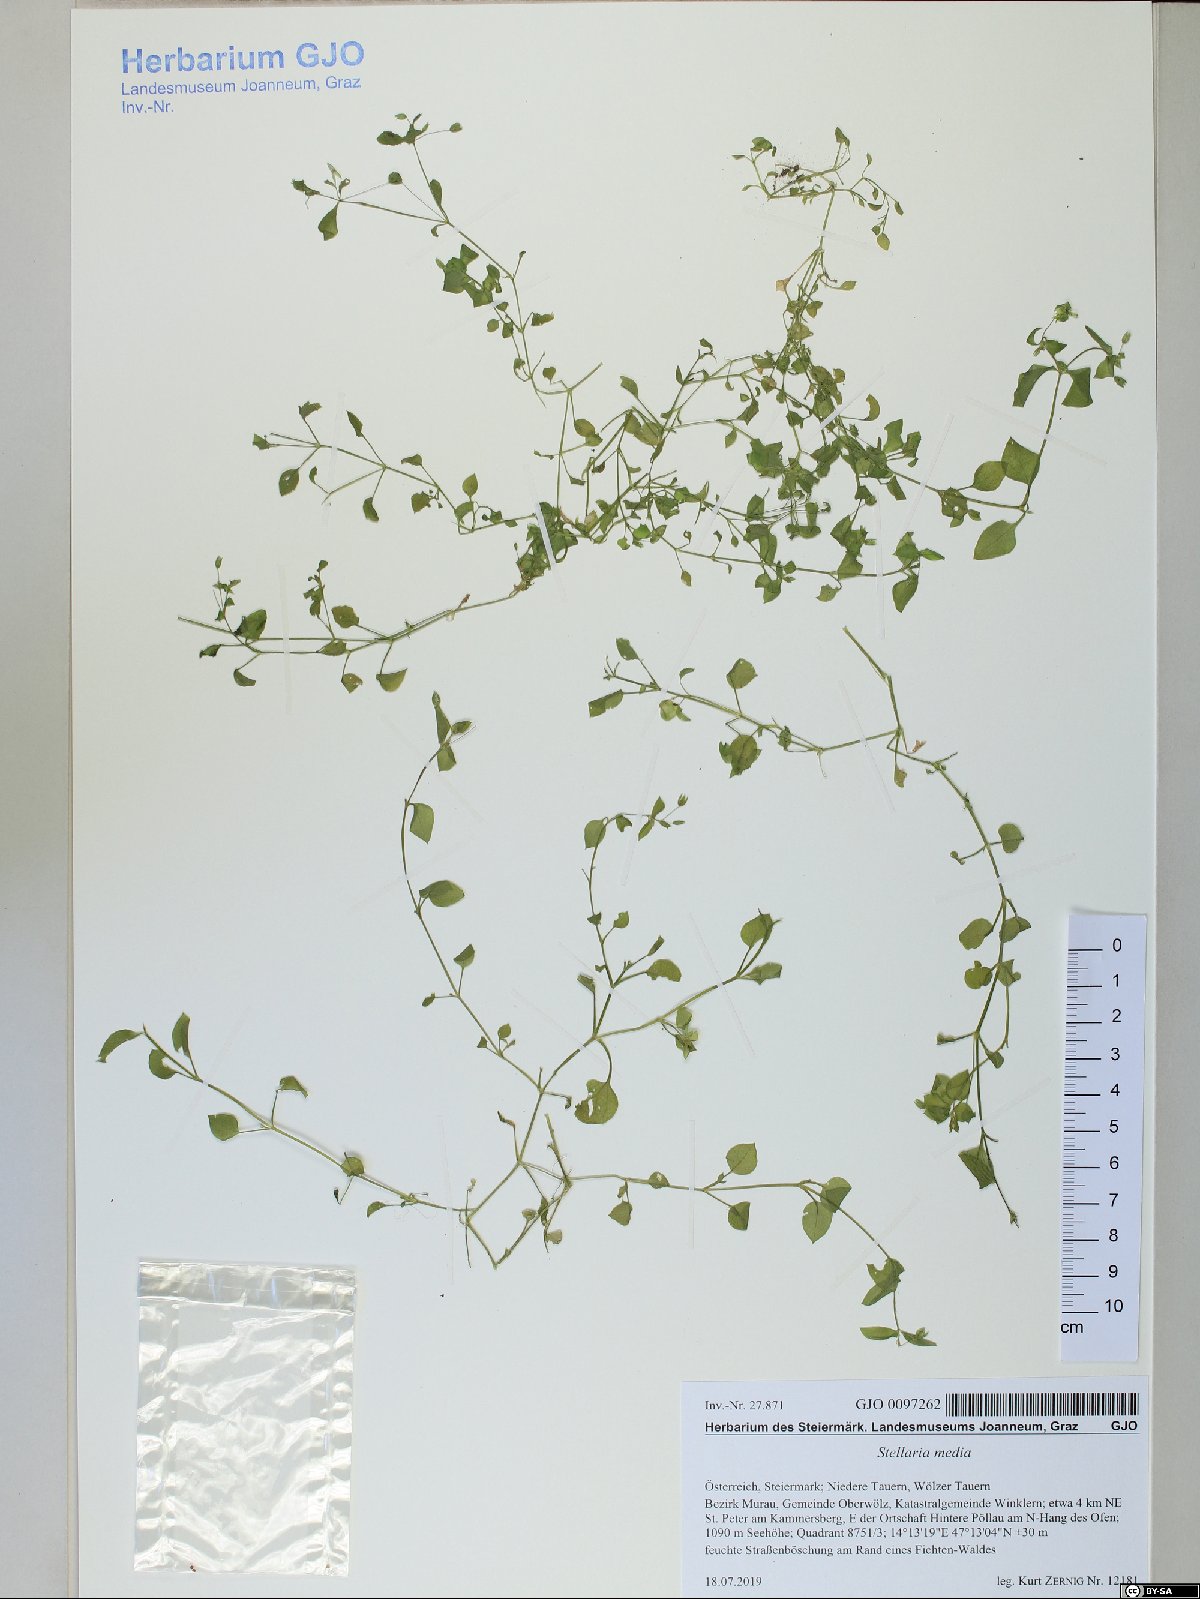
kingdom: Plantae
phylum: Tracheophyta
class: Magnoliopsida
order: Caryophyllales
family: Caryophyllaceae
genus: Stellaria
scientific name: Stellaria media
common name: Common chickweed
